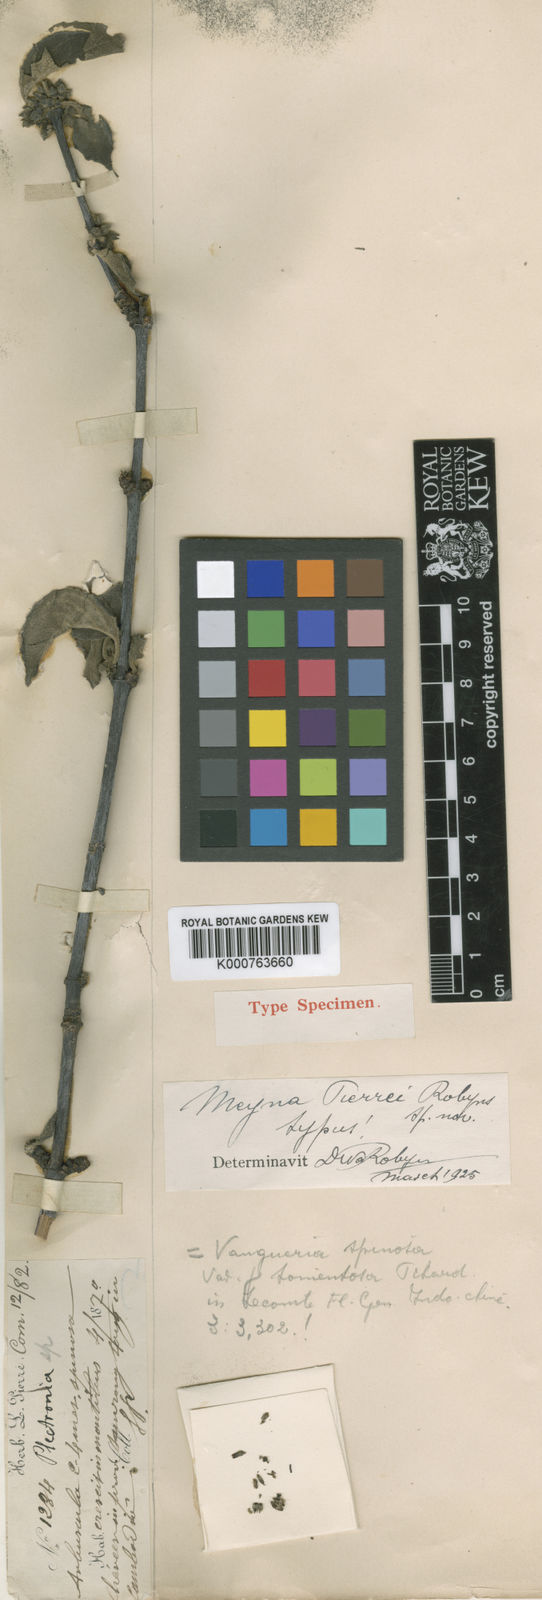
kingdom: Plantae
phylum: Tracheophyta
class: Magnoliopsida
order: Gentianales
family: Rubiaceae
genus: Meyna
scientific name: Meyna pubescens
